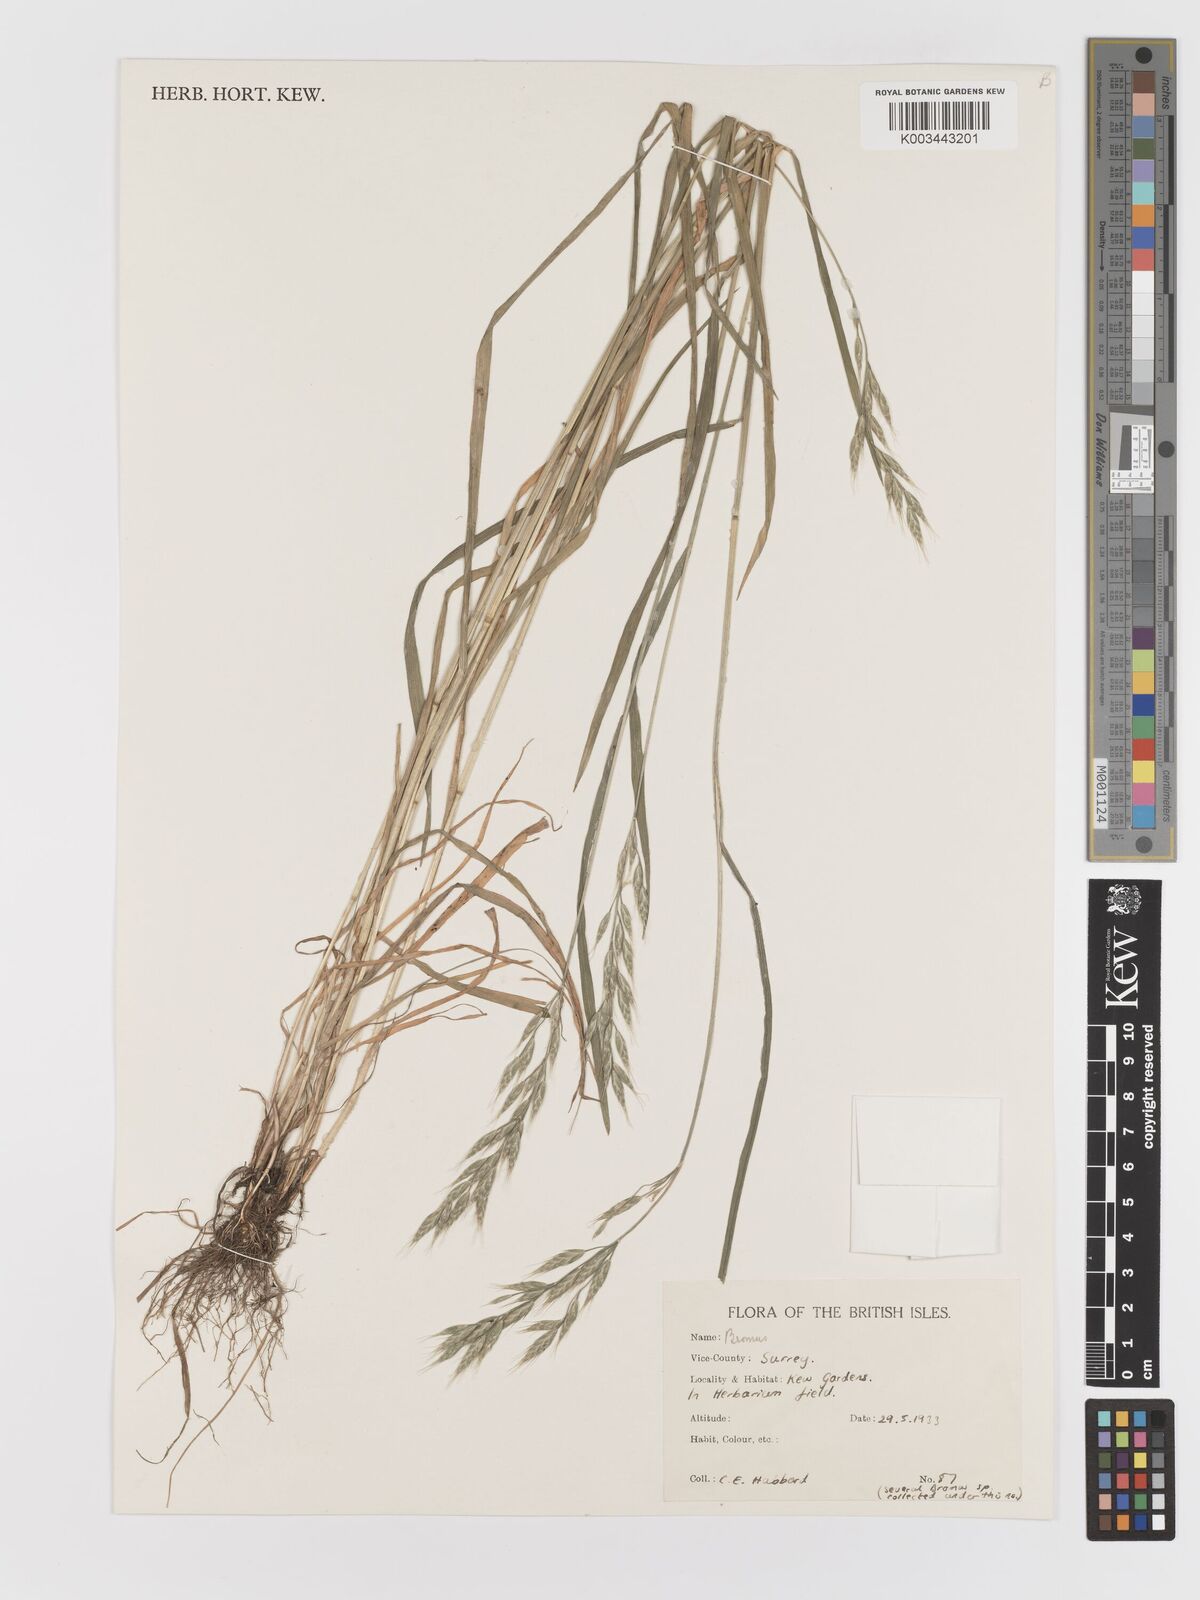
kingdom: Plantae
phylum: Tracheophyta
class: Liliopsida
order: Poales
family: Poaceae
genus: Bromus
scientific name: Bromus
